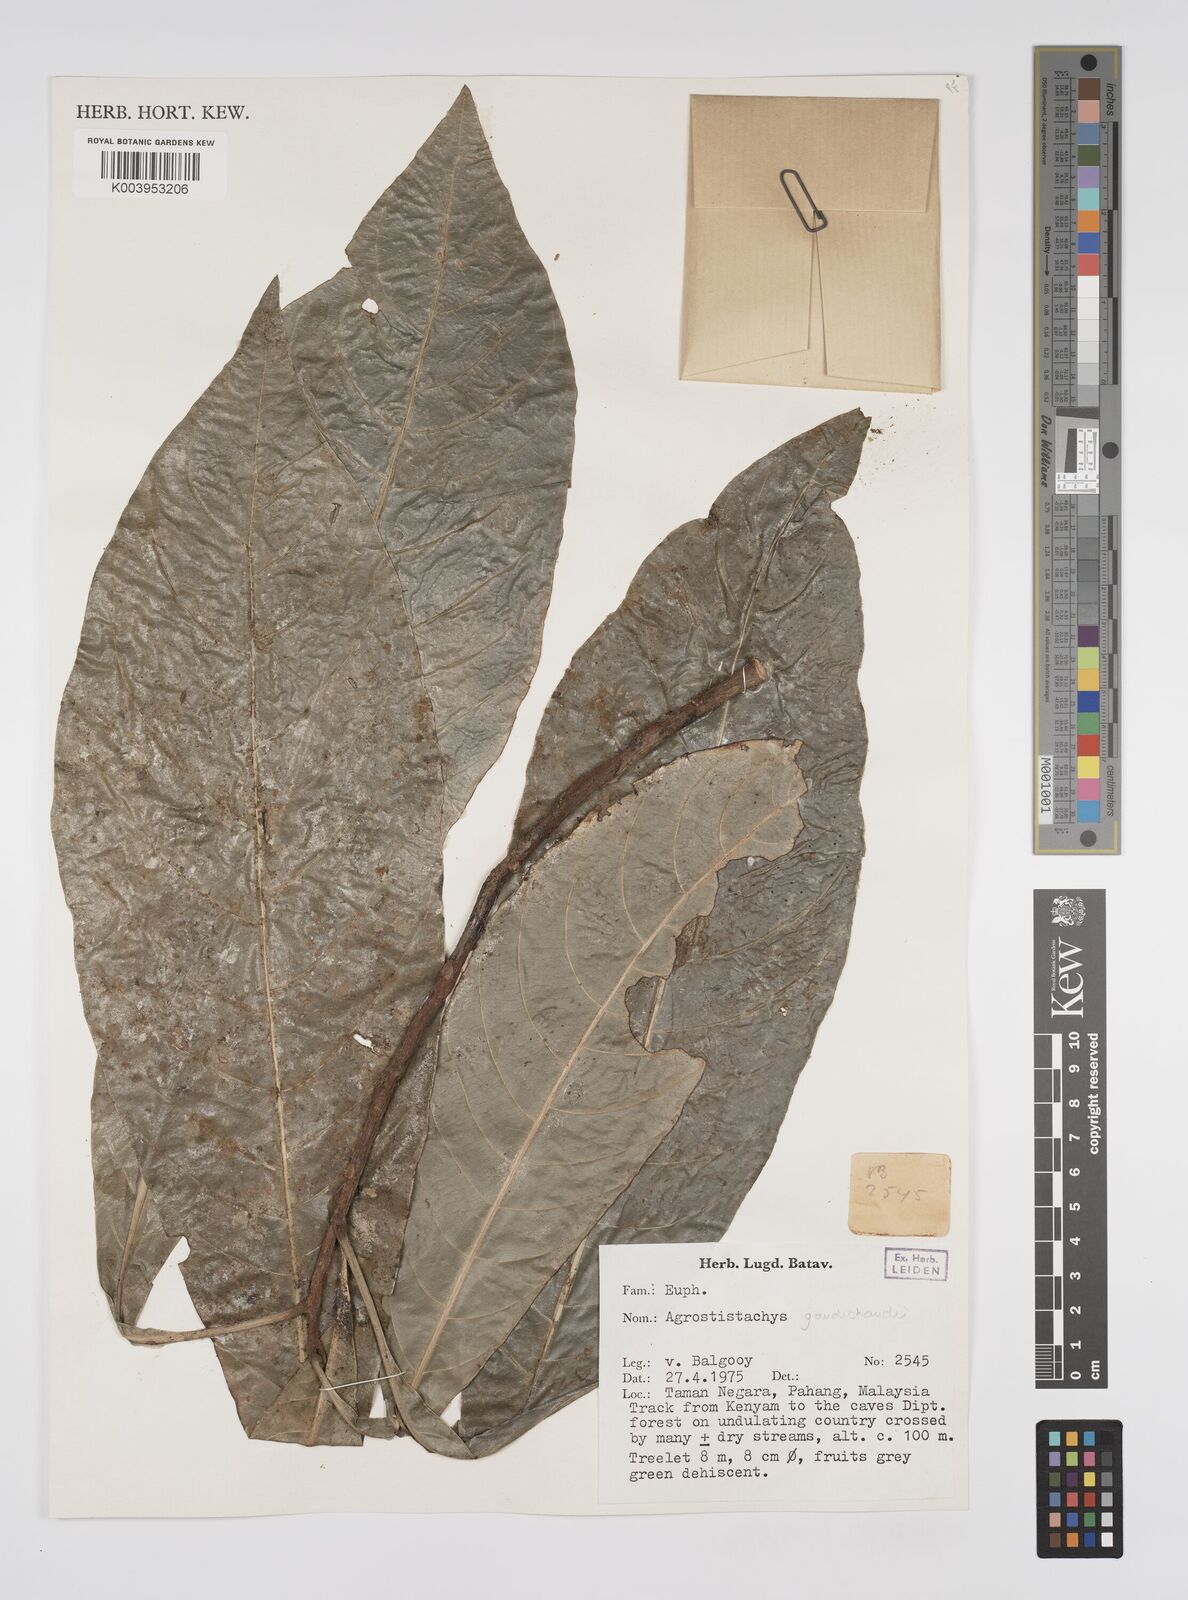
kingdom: Plantae
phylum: Tracheophyta
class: Magnoliopsida
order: Malpighiales
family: Euphorbiaceae
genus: Agrostistachys
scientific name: Agrostistachys gaudichaudii
